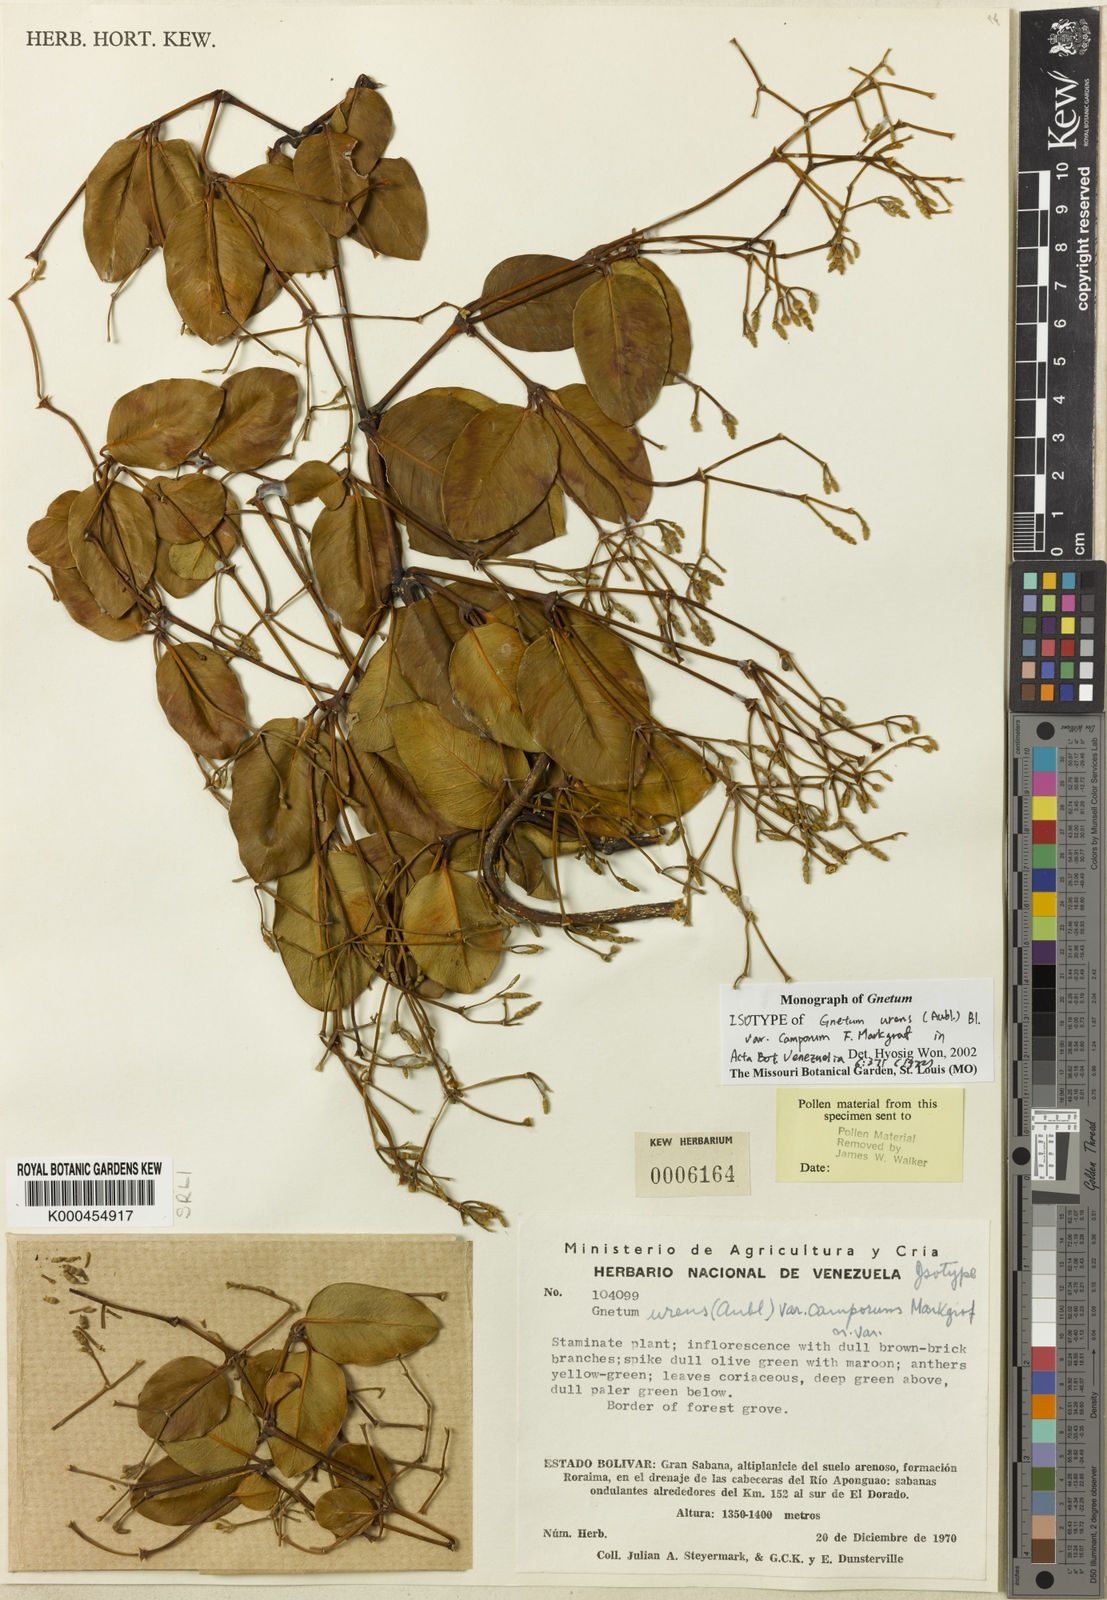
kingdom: Plantae
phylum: Tracheophyta
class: Gnetopsida
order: Gnetales
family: Gnetaceae
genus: Gnetum
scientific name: Gnetum camporum
